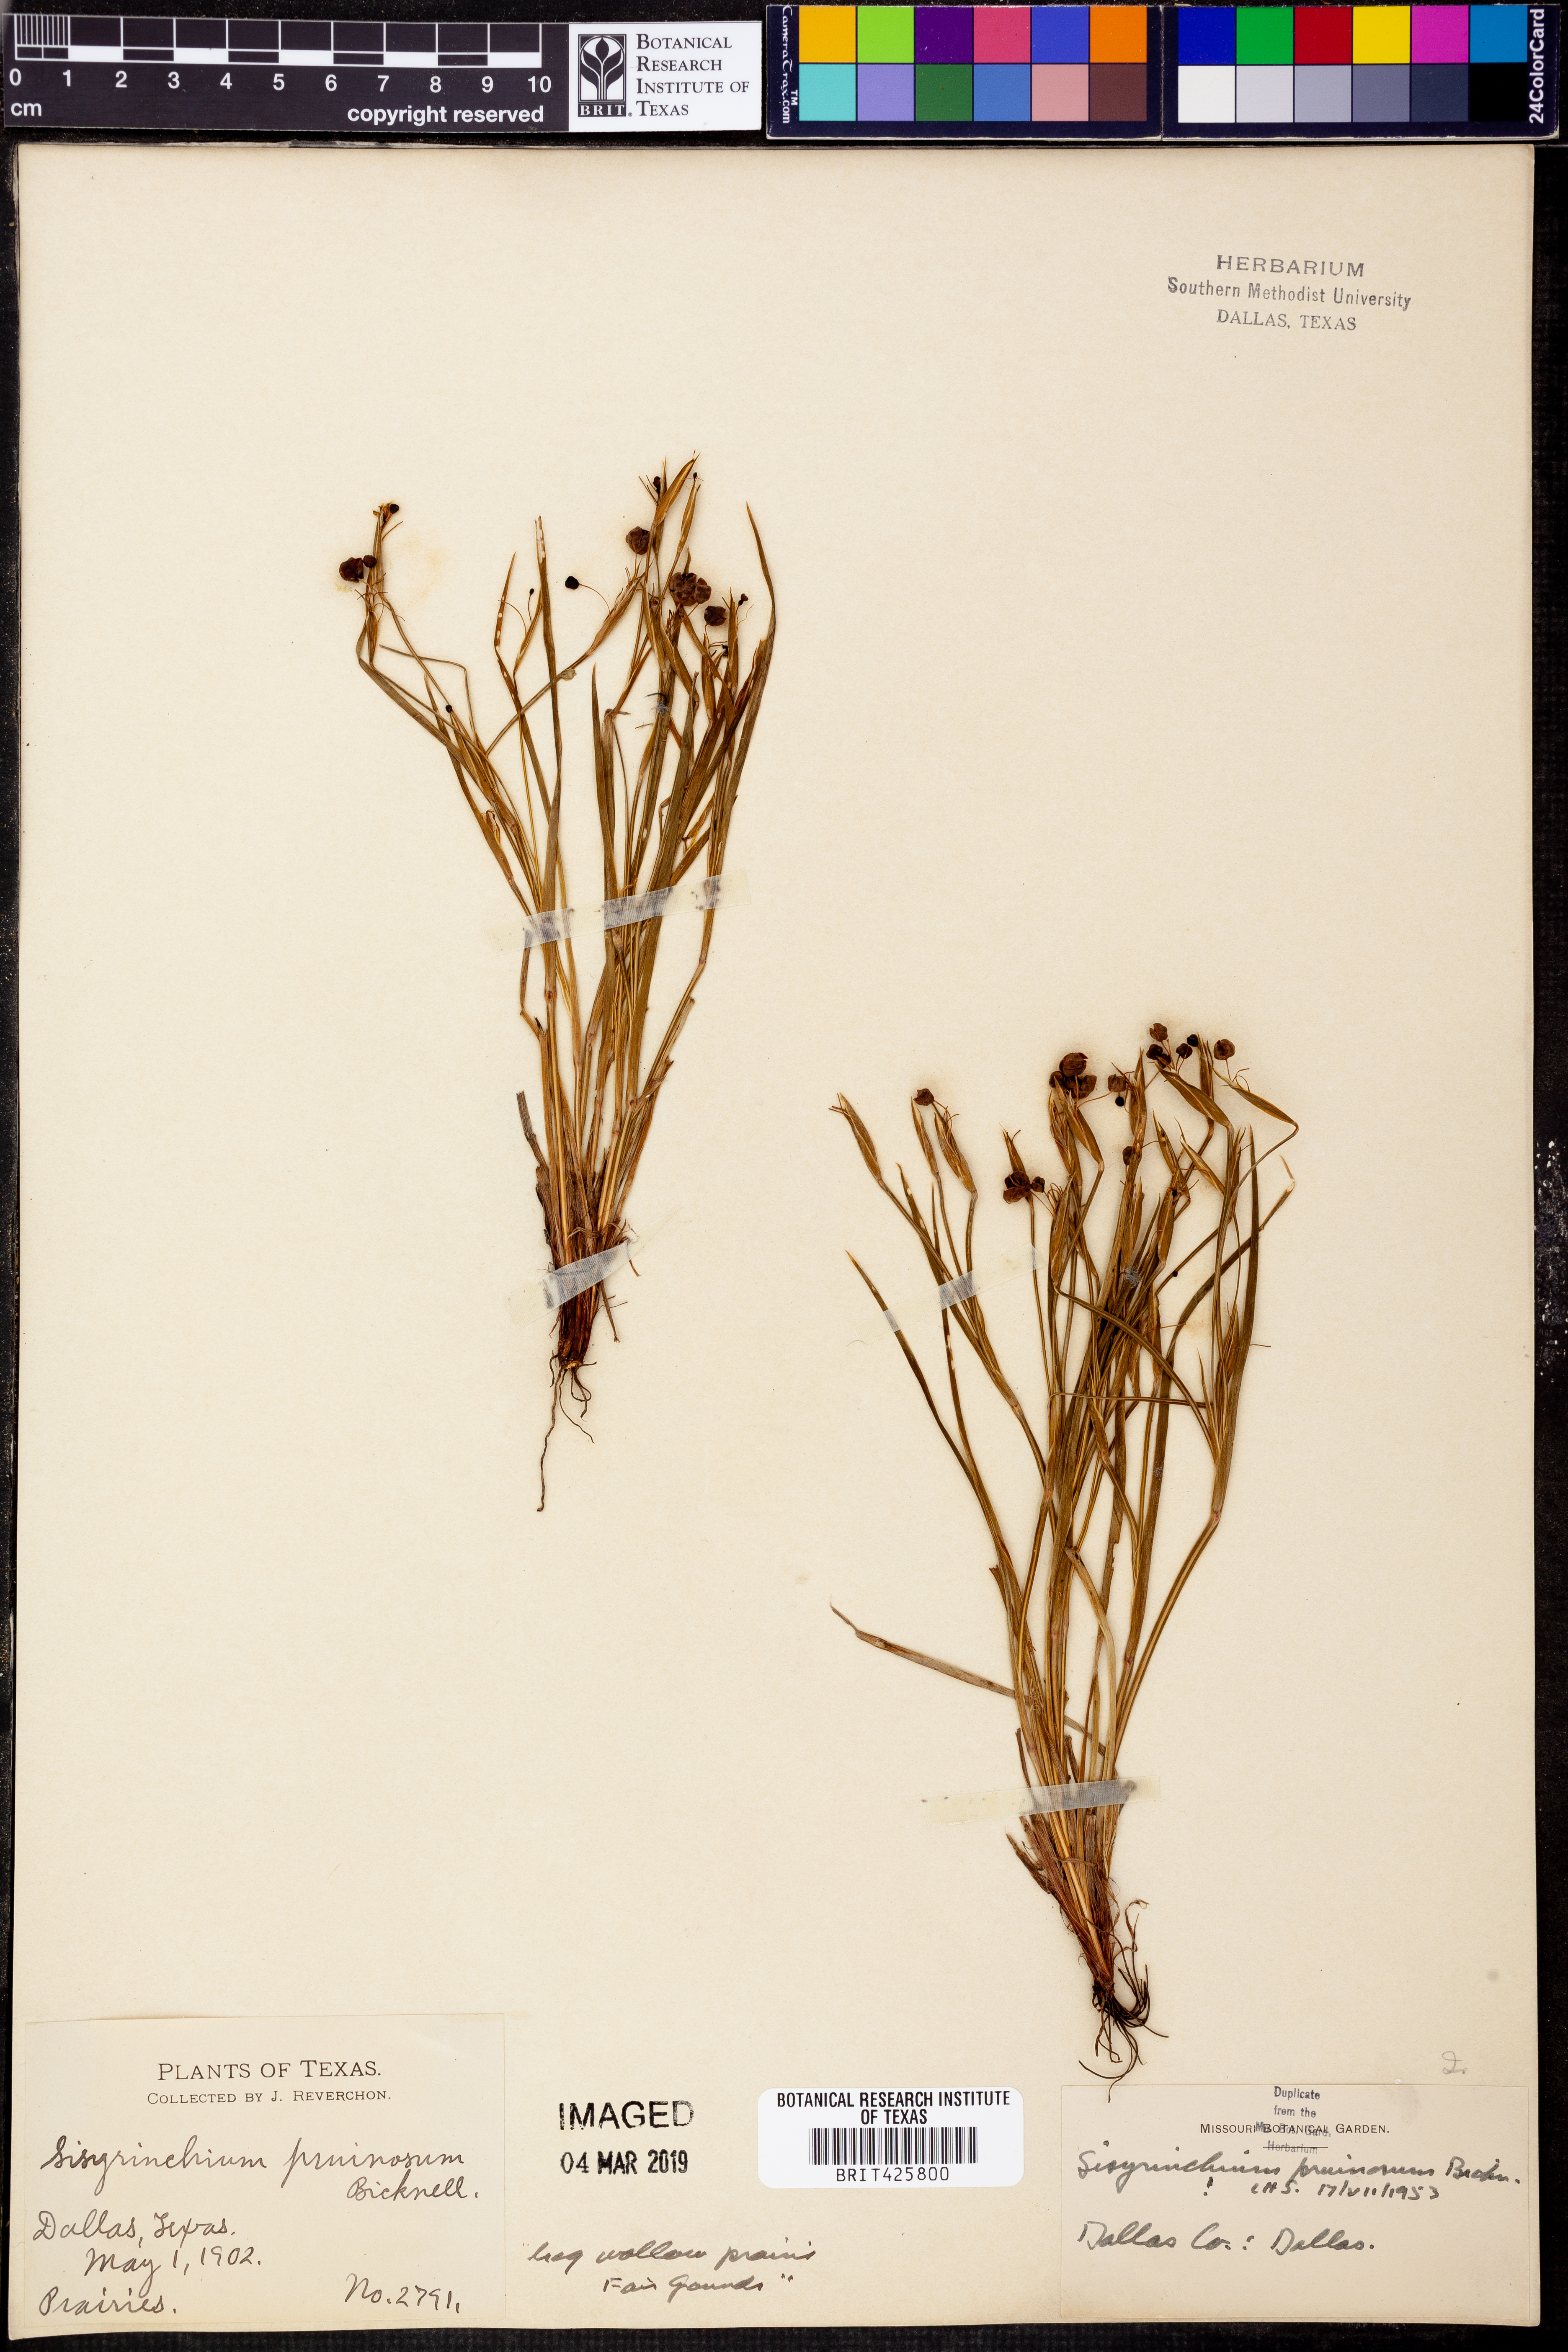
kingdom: Plantae
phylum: Tracheophyta
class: Liliopsida
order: Asparagales
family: Iridaceae
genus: Sisyrinchium
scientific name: Sisyrinchium pruinosum
